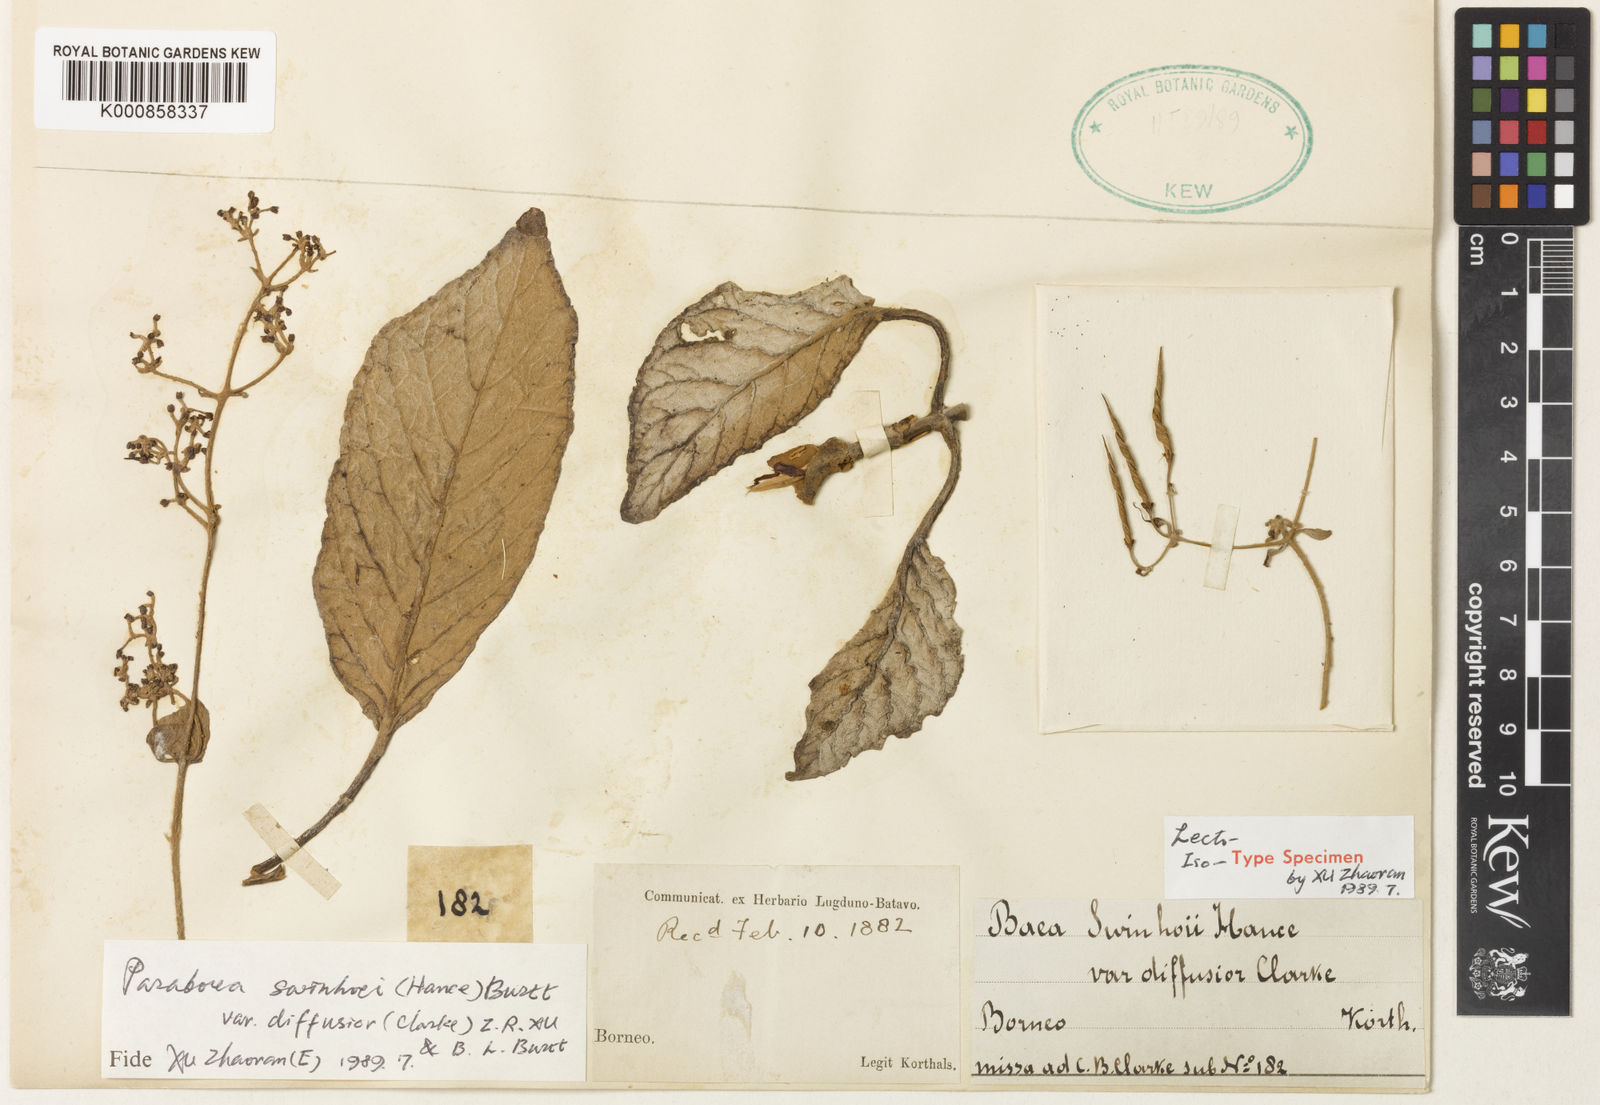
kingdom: Plantae
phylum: Tracheophyta
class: Magnoliopsida
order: Lamiales
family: Gesneriaceae
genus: Paraboea
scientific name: Paraboea swinhoei
